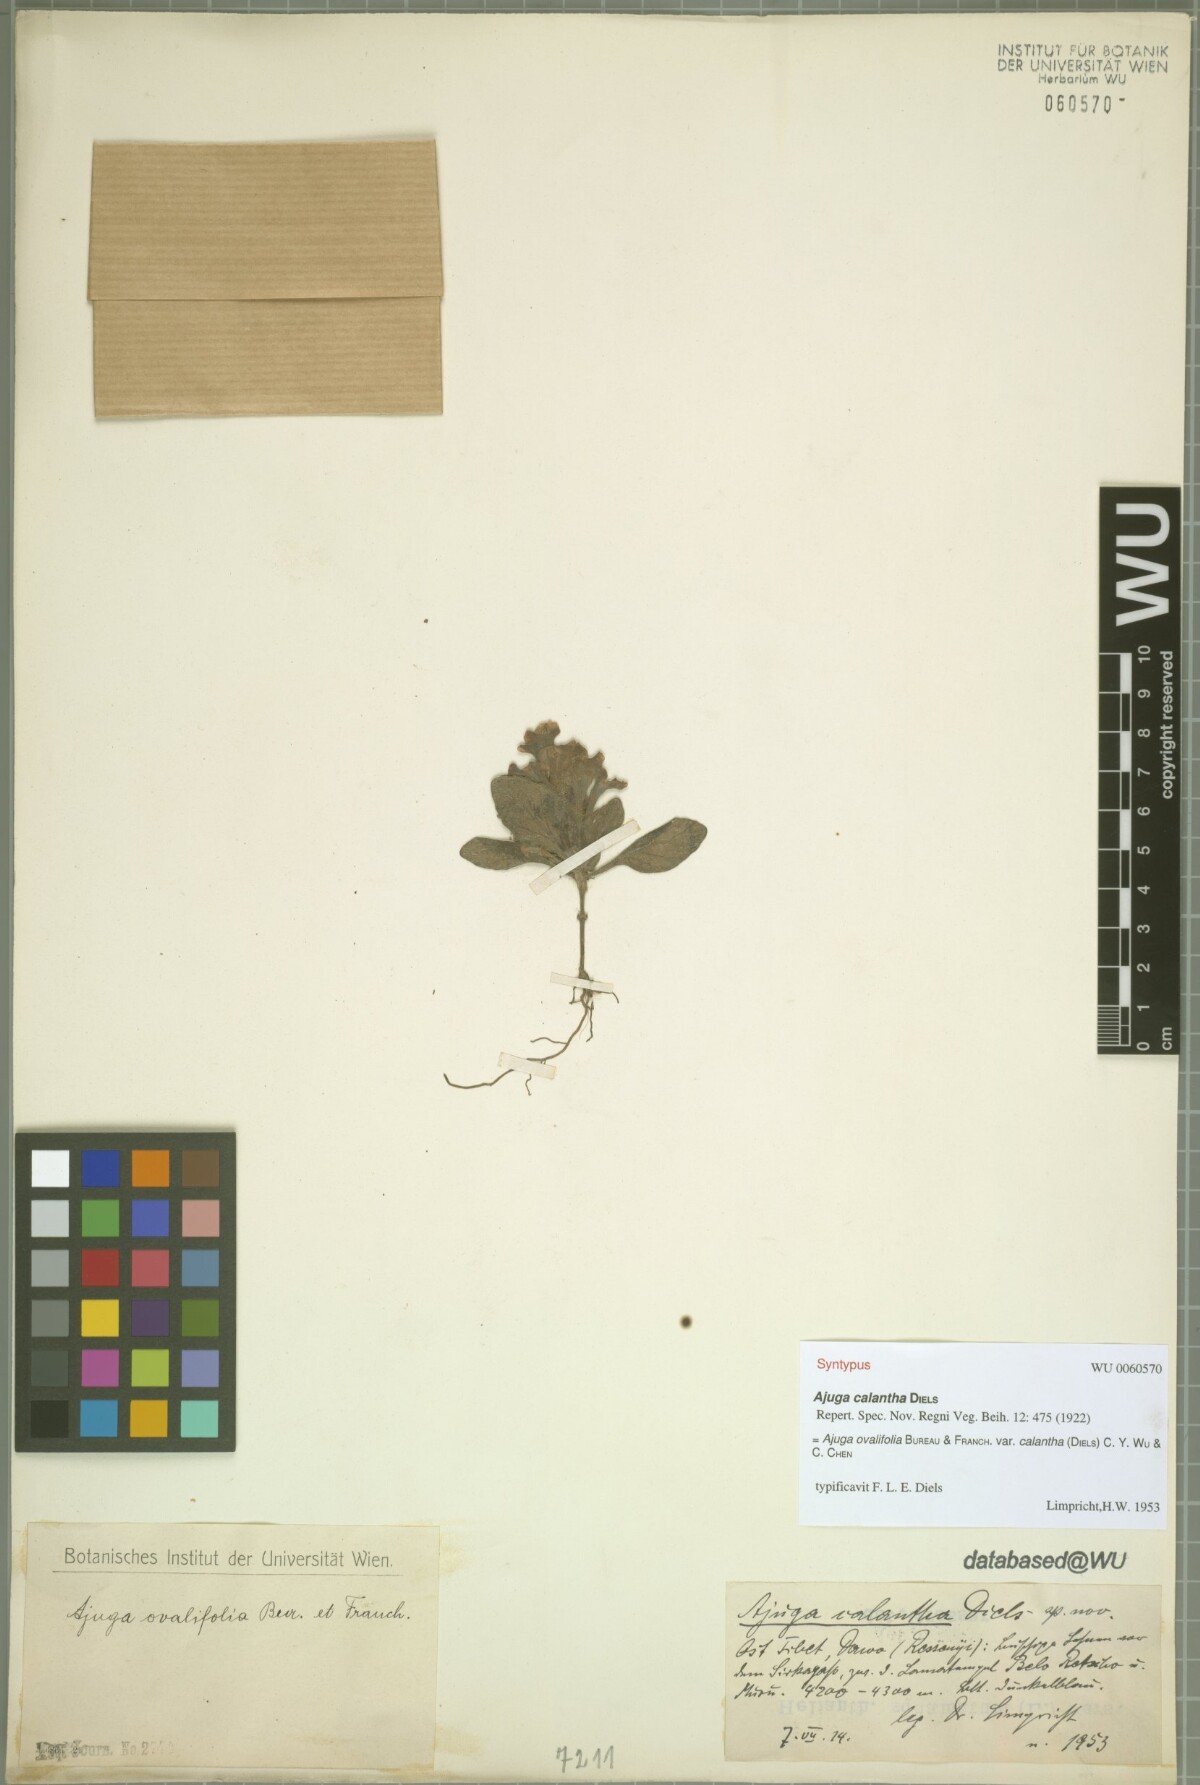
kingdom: Plantae
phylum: Tracheophyta
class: Magnoliopsida
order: Lamiales
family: Lamiaceae
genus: Ajuga
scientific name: Ajuga ovalifolia
